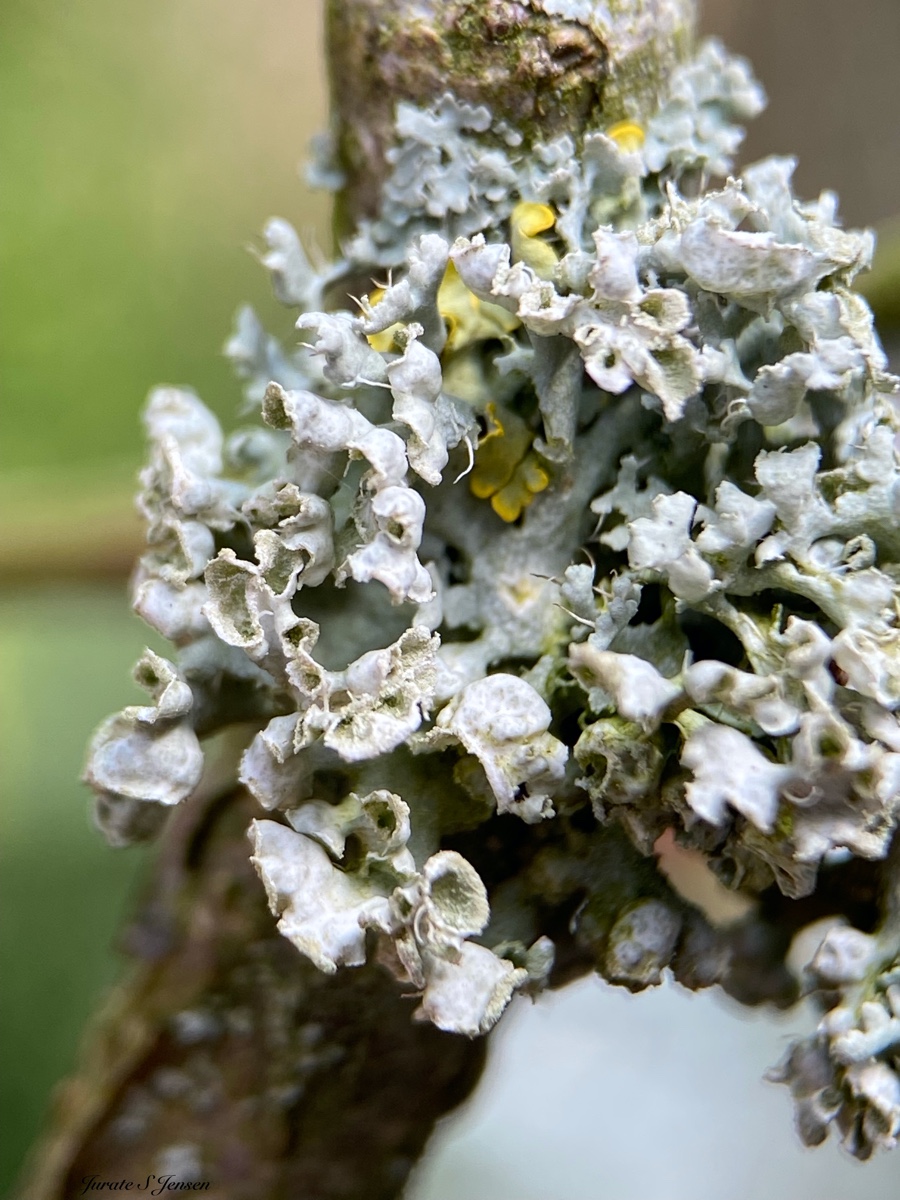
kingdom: Fungi
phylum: Ascomycota
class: Lecanoromycetes
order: Caliciales
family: Physciaceae
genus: Physcia
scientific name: Physcia adscendens
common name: hætte-rosetlav
